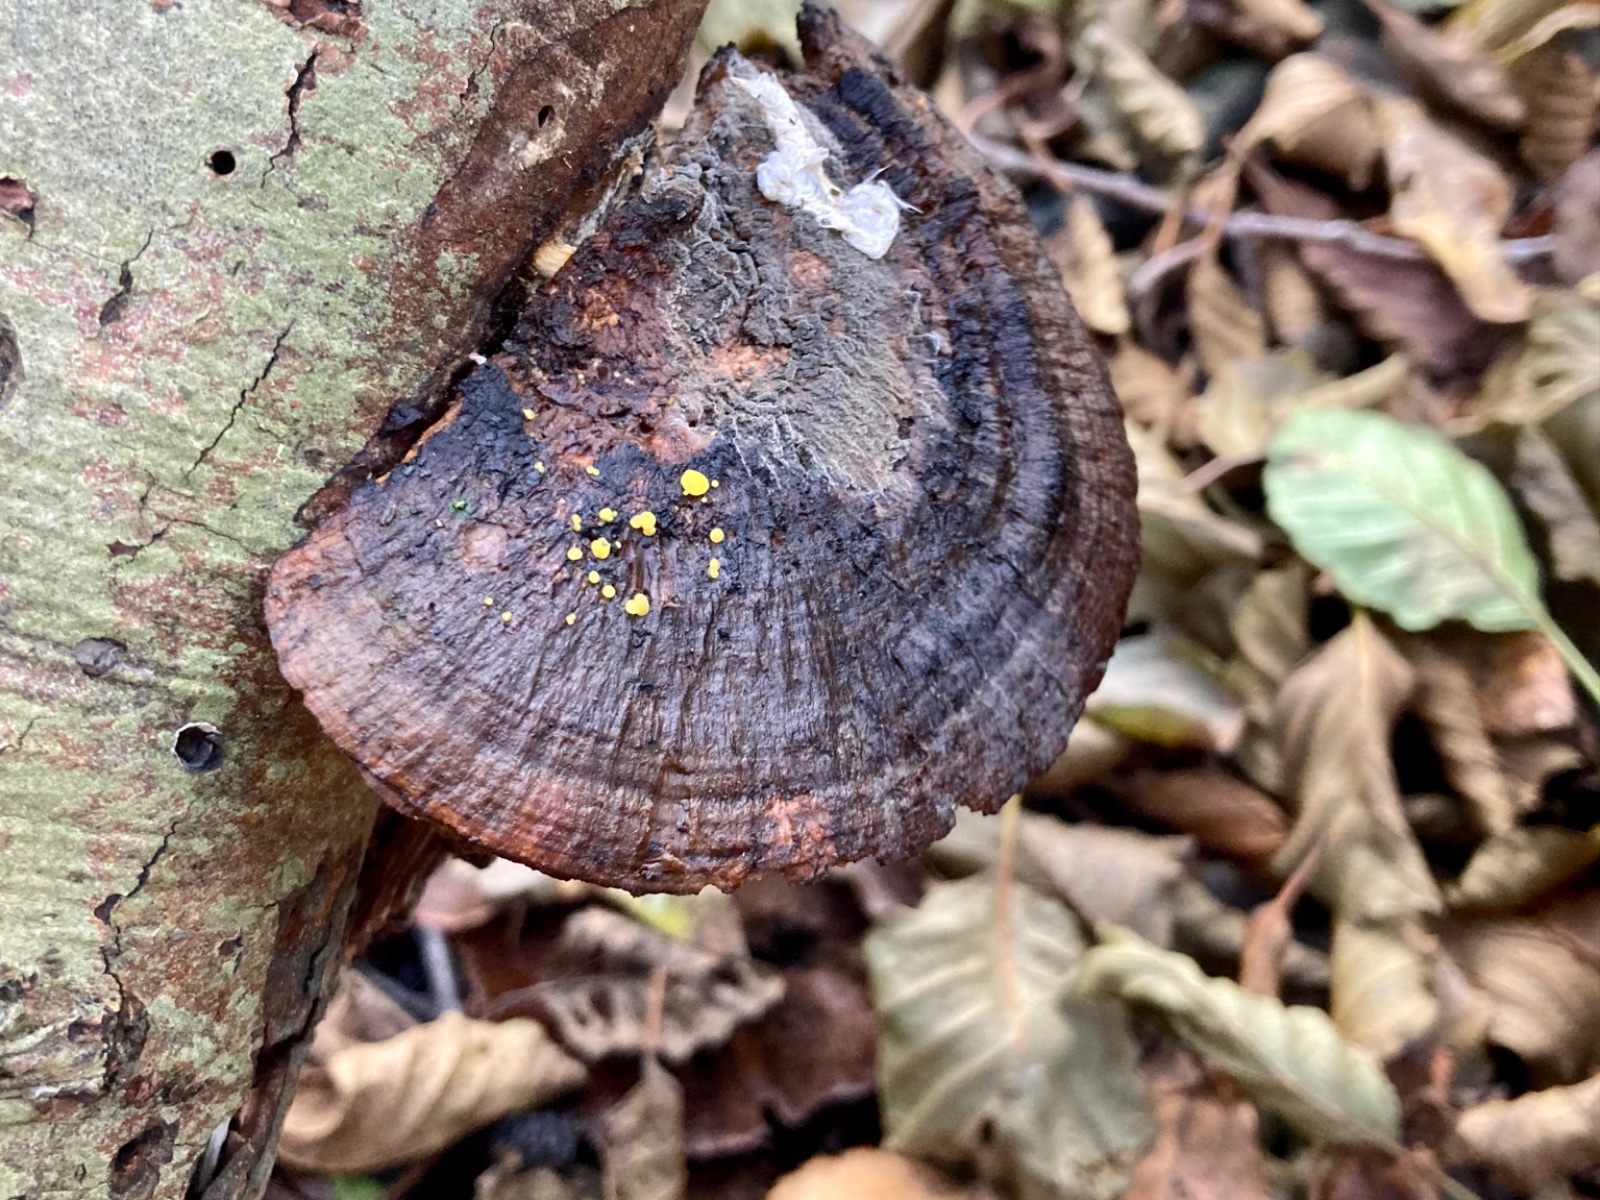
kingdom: Fungi
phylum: Ascomycota
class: Leotiomycetes
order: Helotiales
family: Pezizellaceae
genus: Calycina
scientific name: Calycina claroflava
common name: snyltende gulskive
